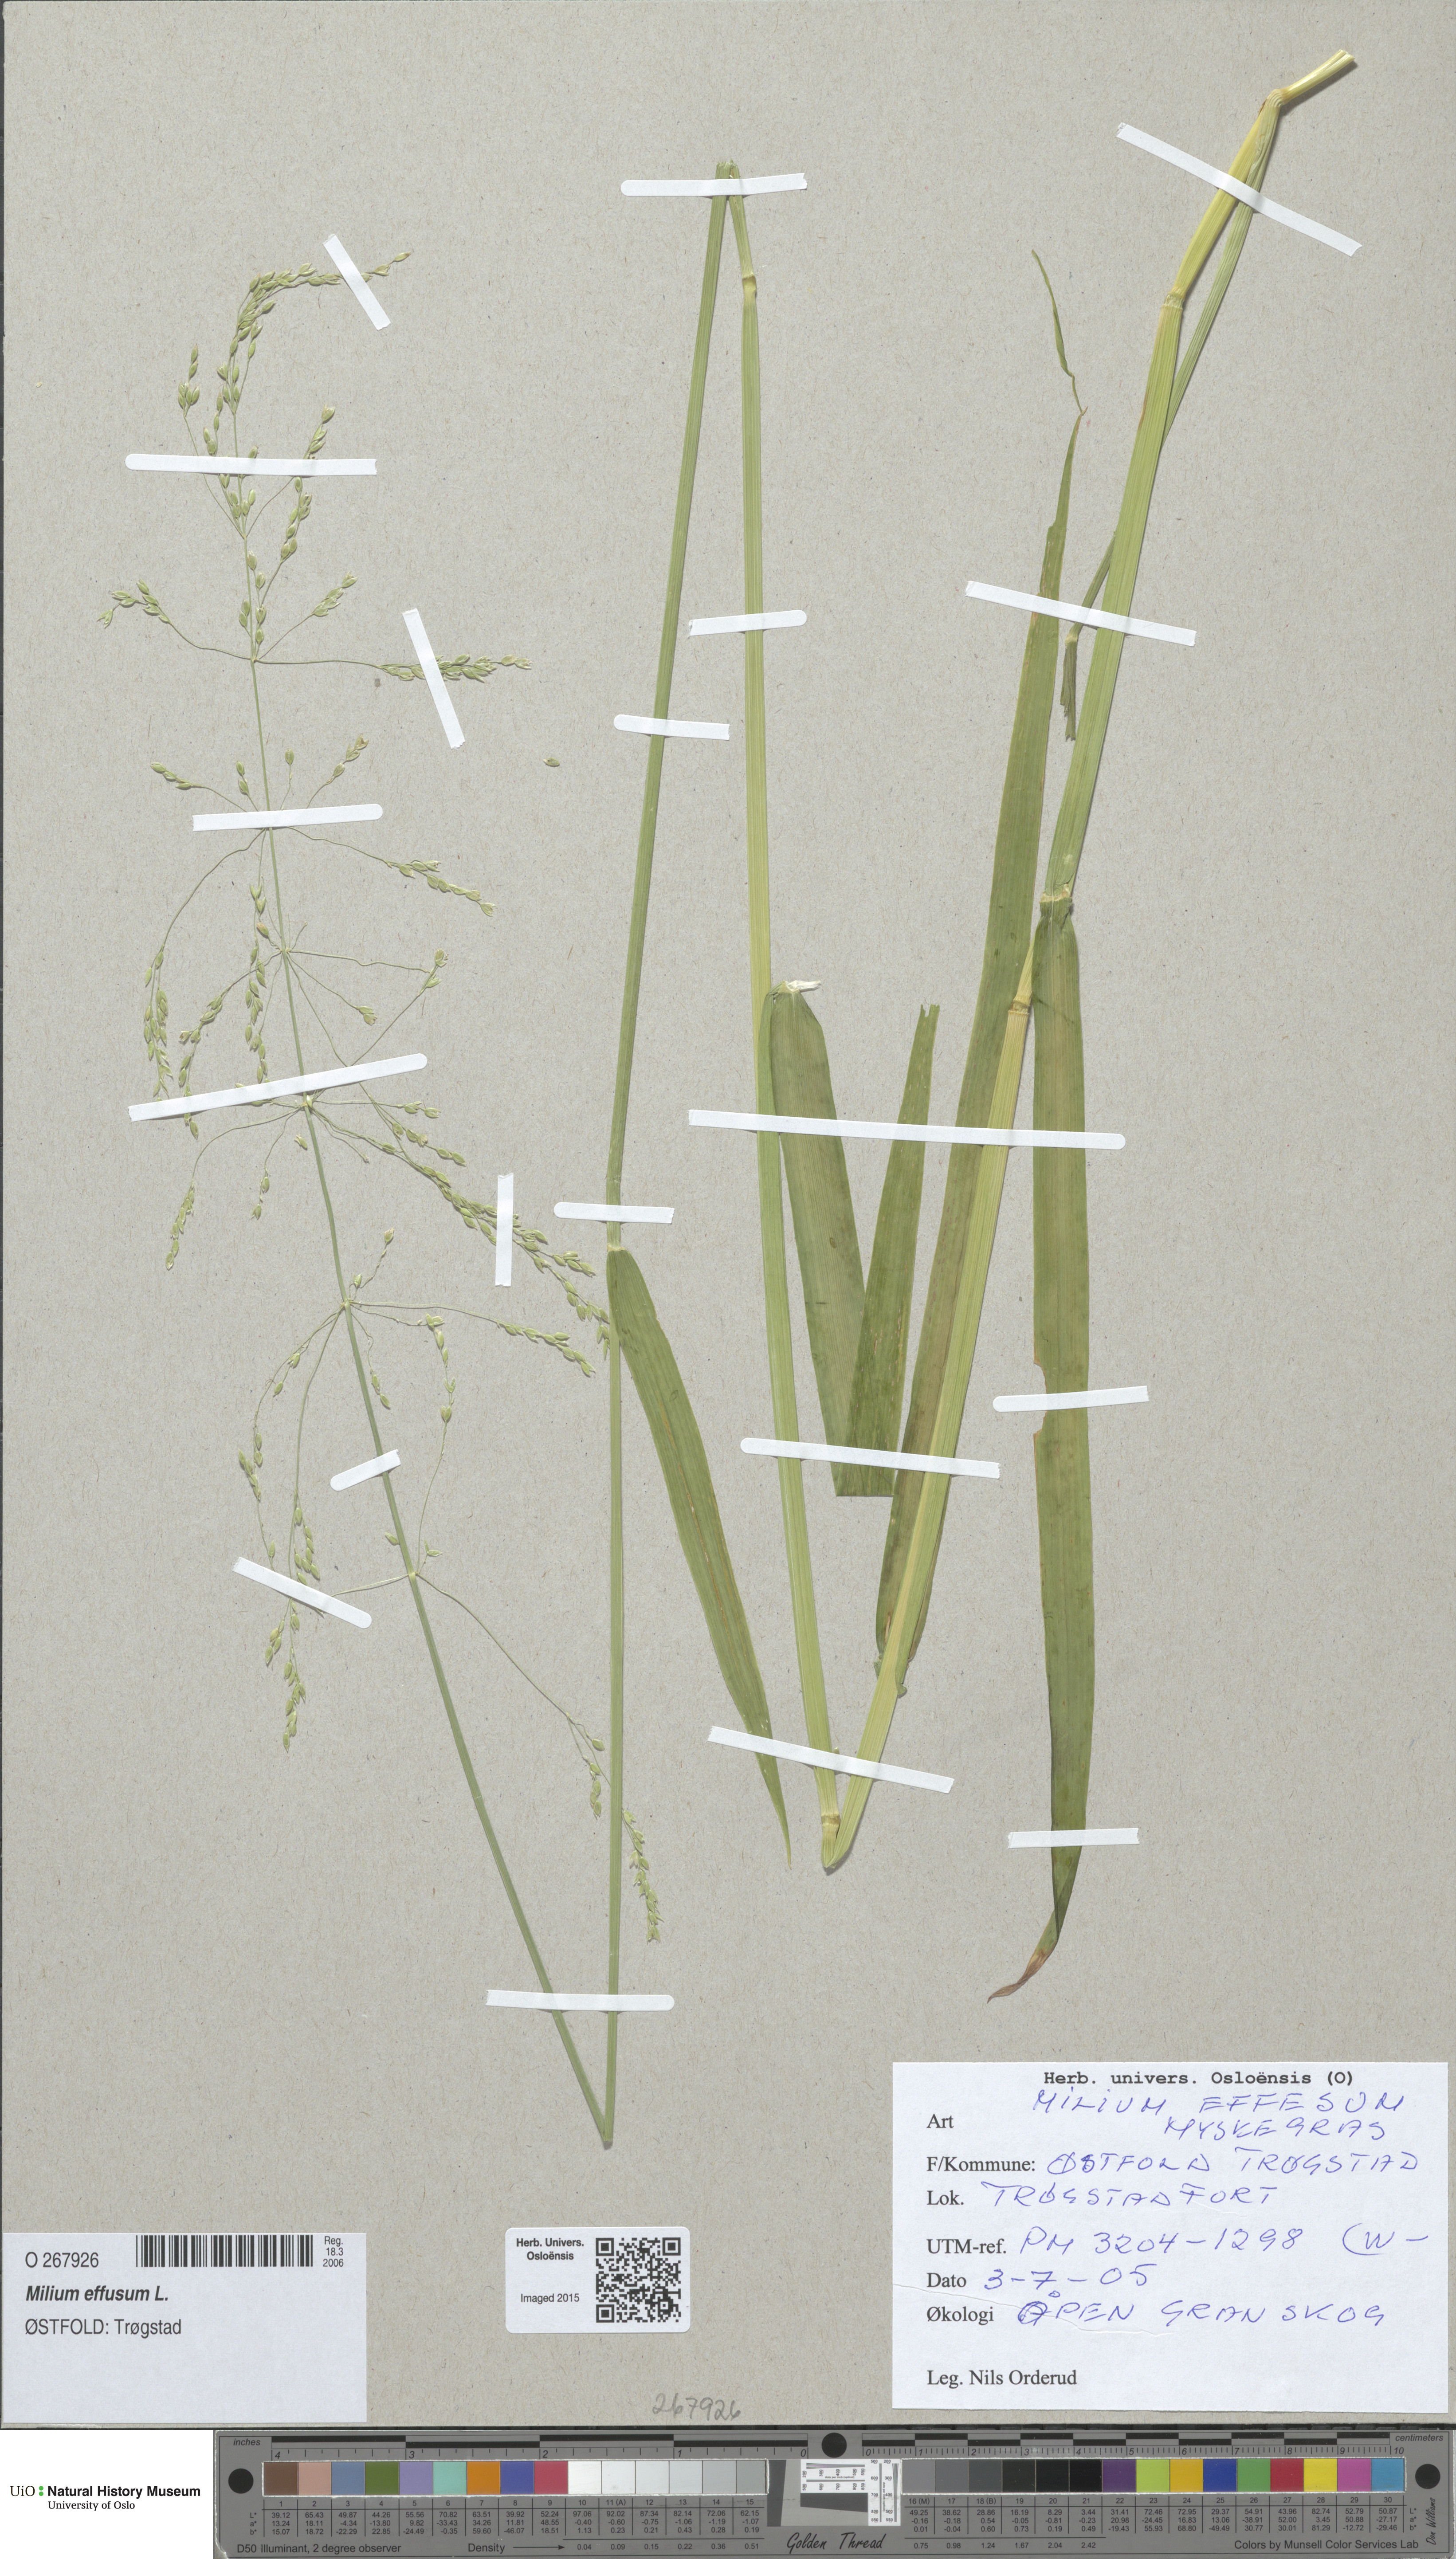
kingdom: Plantae
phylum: Tracheophyta
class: Liliopsida
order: Poales
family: Poaceae
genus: Milium
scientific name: Milium effusum
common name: Wood millet
